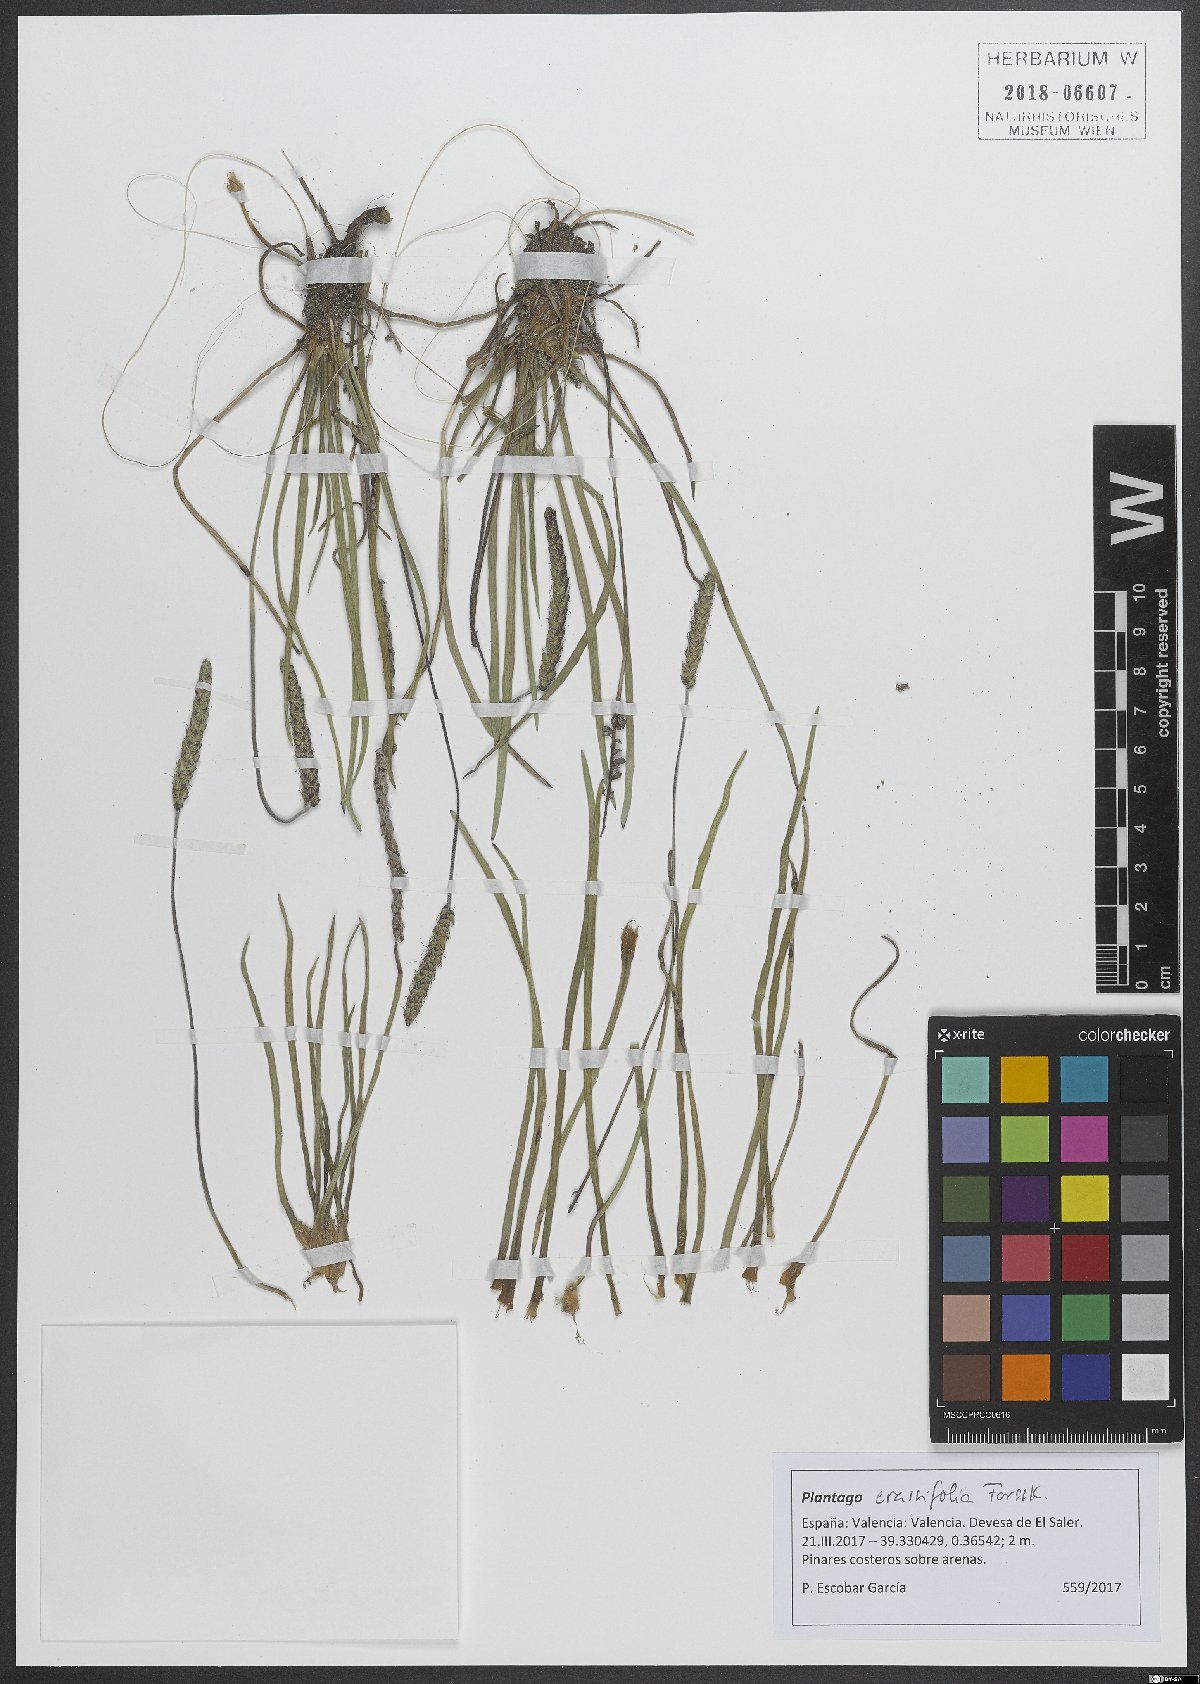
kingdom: Plantae
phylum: Tracheophyta
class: Magnoliopsida
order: Lamiales
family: Plantaginaceae
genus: Plantago
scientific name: Plantago crassifolia
